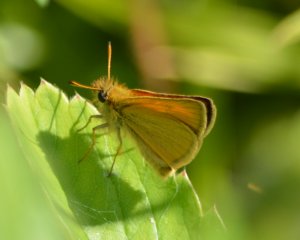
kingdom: Animalia
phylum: Arthropoda
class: Insecta
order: Lepidoptera
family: Hesperiidae
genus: Thymelicus
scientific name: Thymelicus lineola
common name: European Skipper
